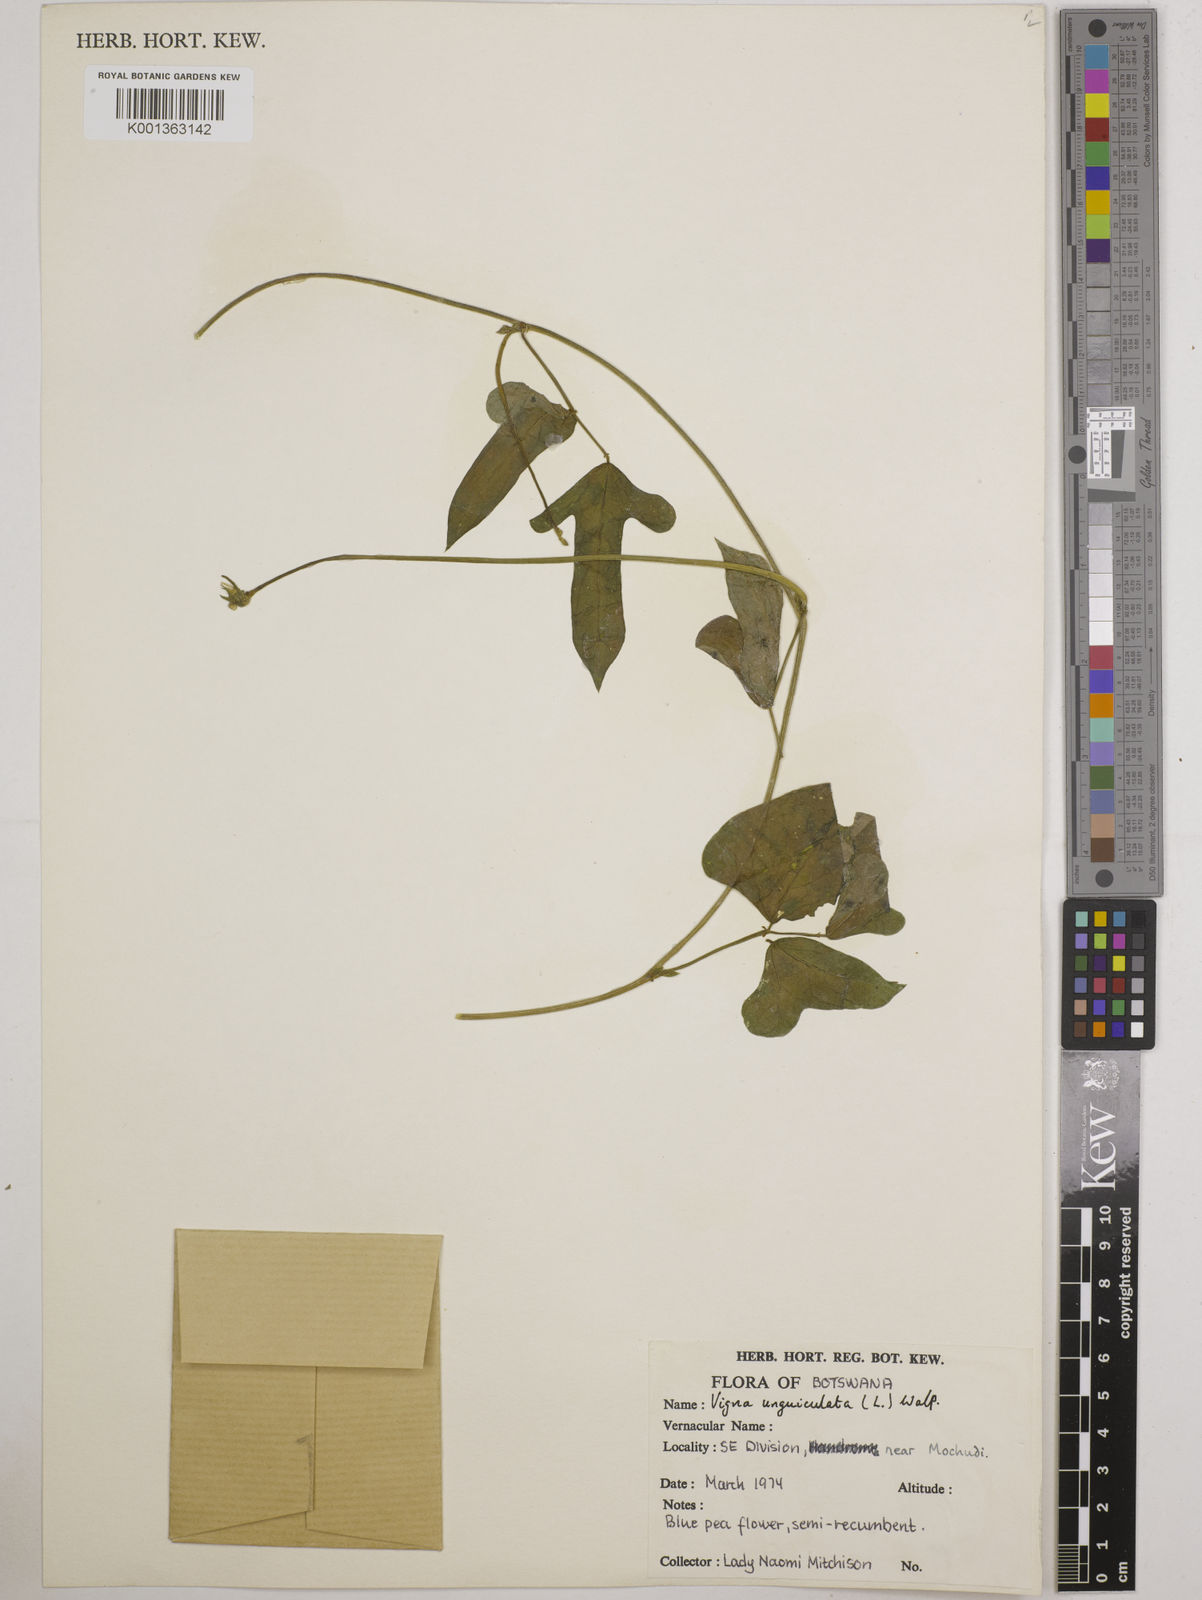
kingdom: Plantae
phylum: Tracheophyta
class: Magnoliopsida
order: Fabales
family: Fabaceae
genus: Vigna
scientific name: Vigna unguiculata
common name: Cowpea
